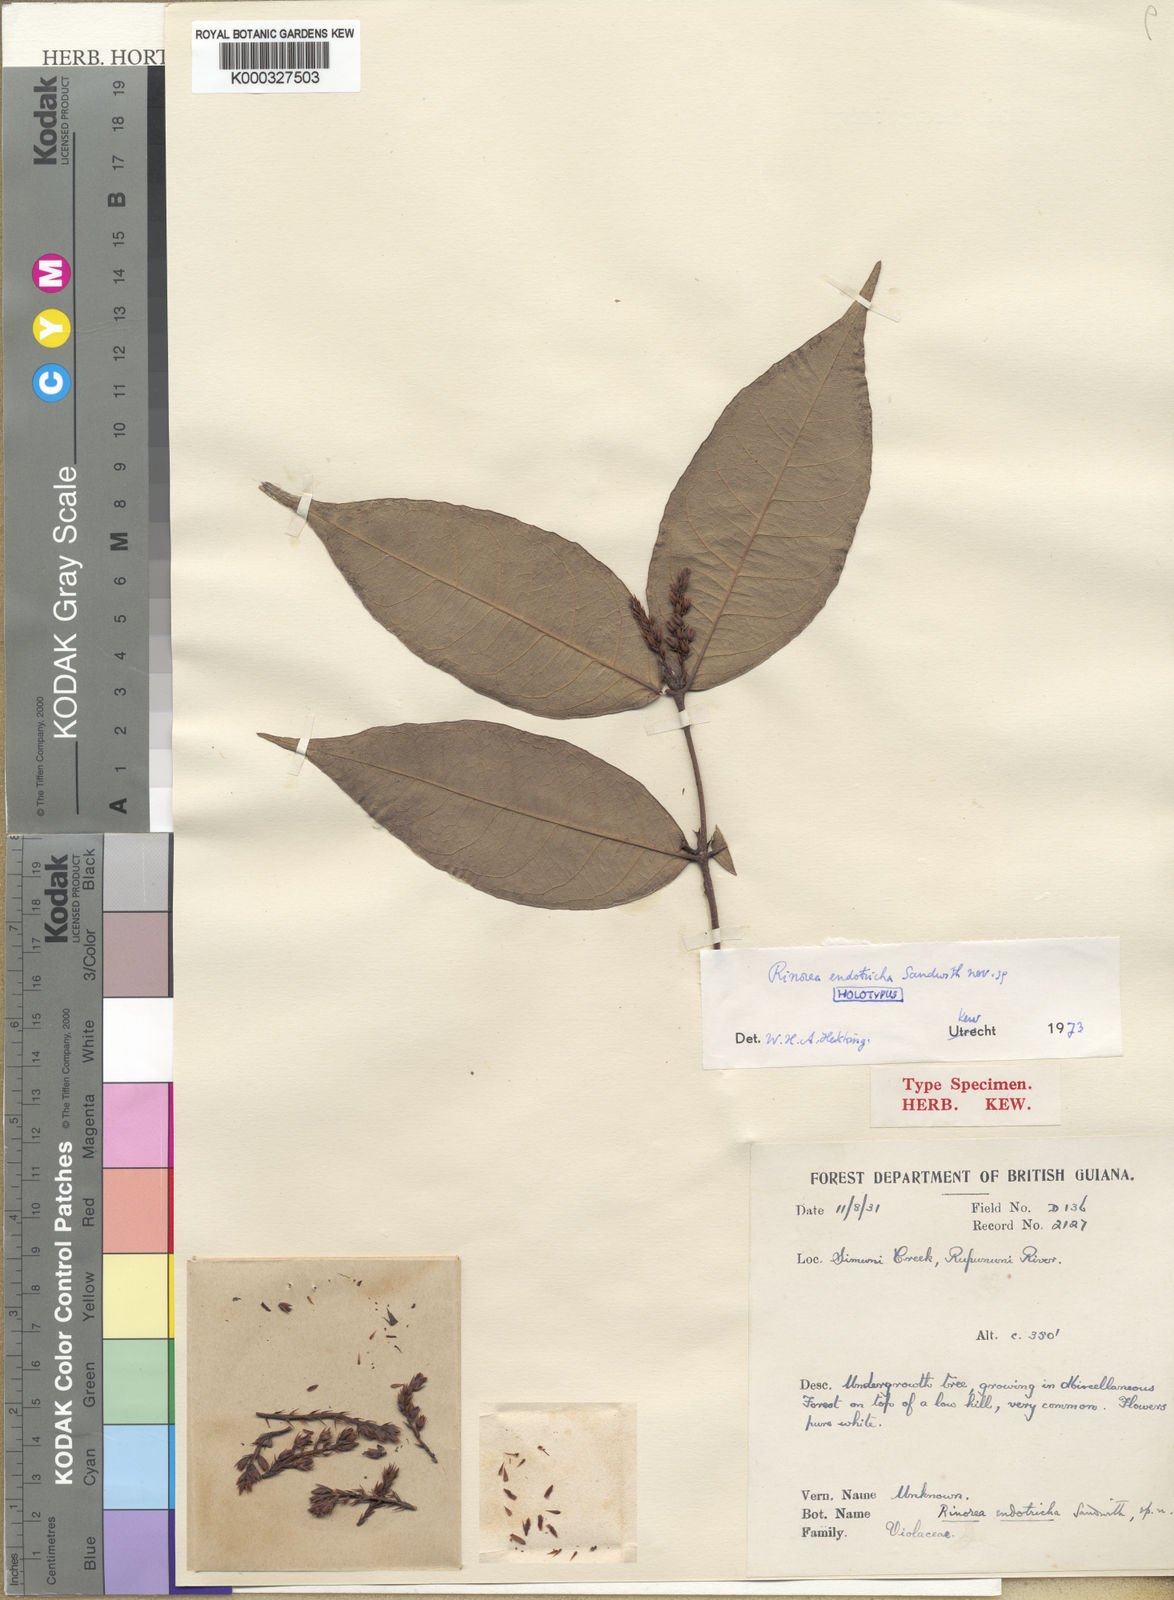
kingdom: Plantae
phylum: Tracheophyta
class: Magnoliopsida
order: Malpighiales
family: Violaceae
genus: Rinorea
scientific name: Rinorea endotricha
